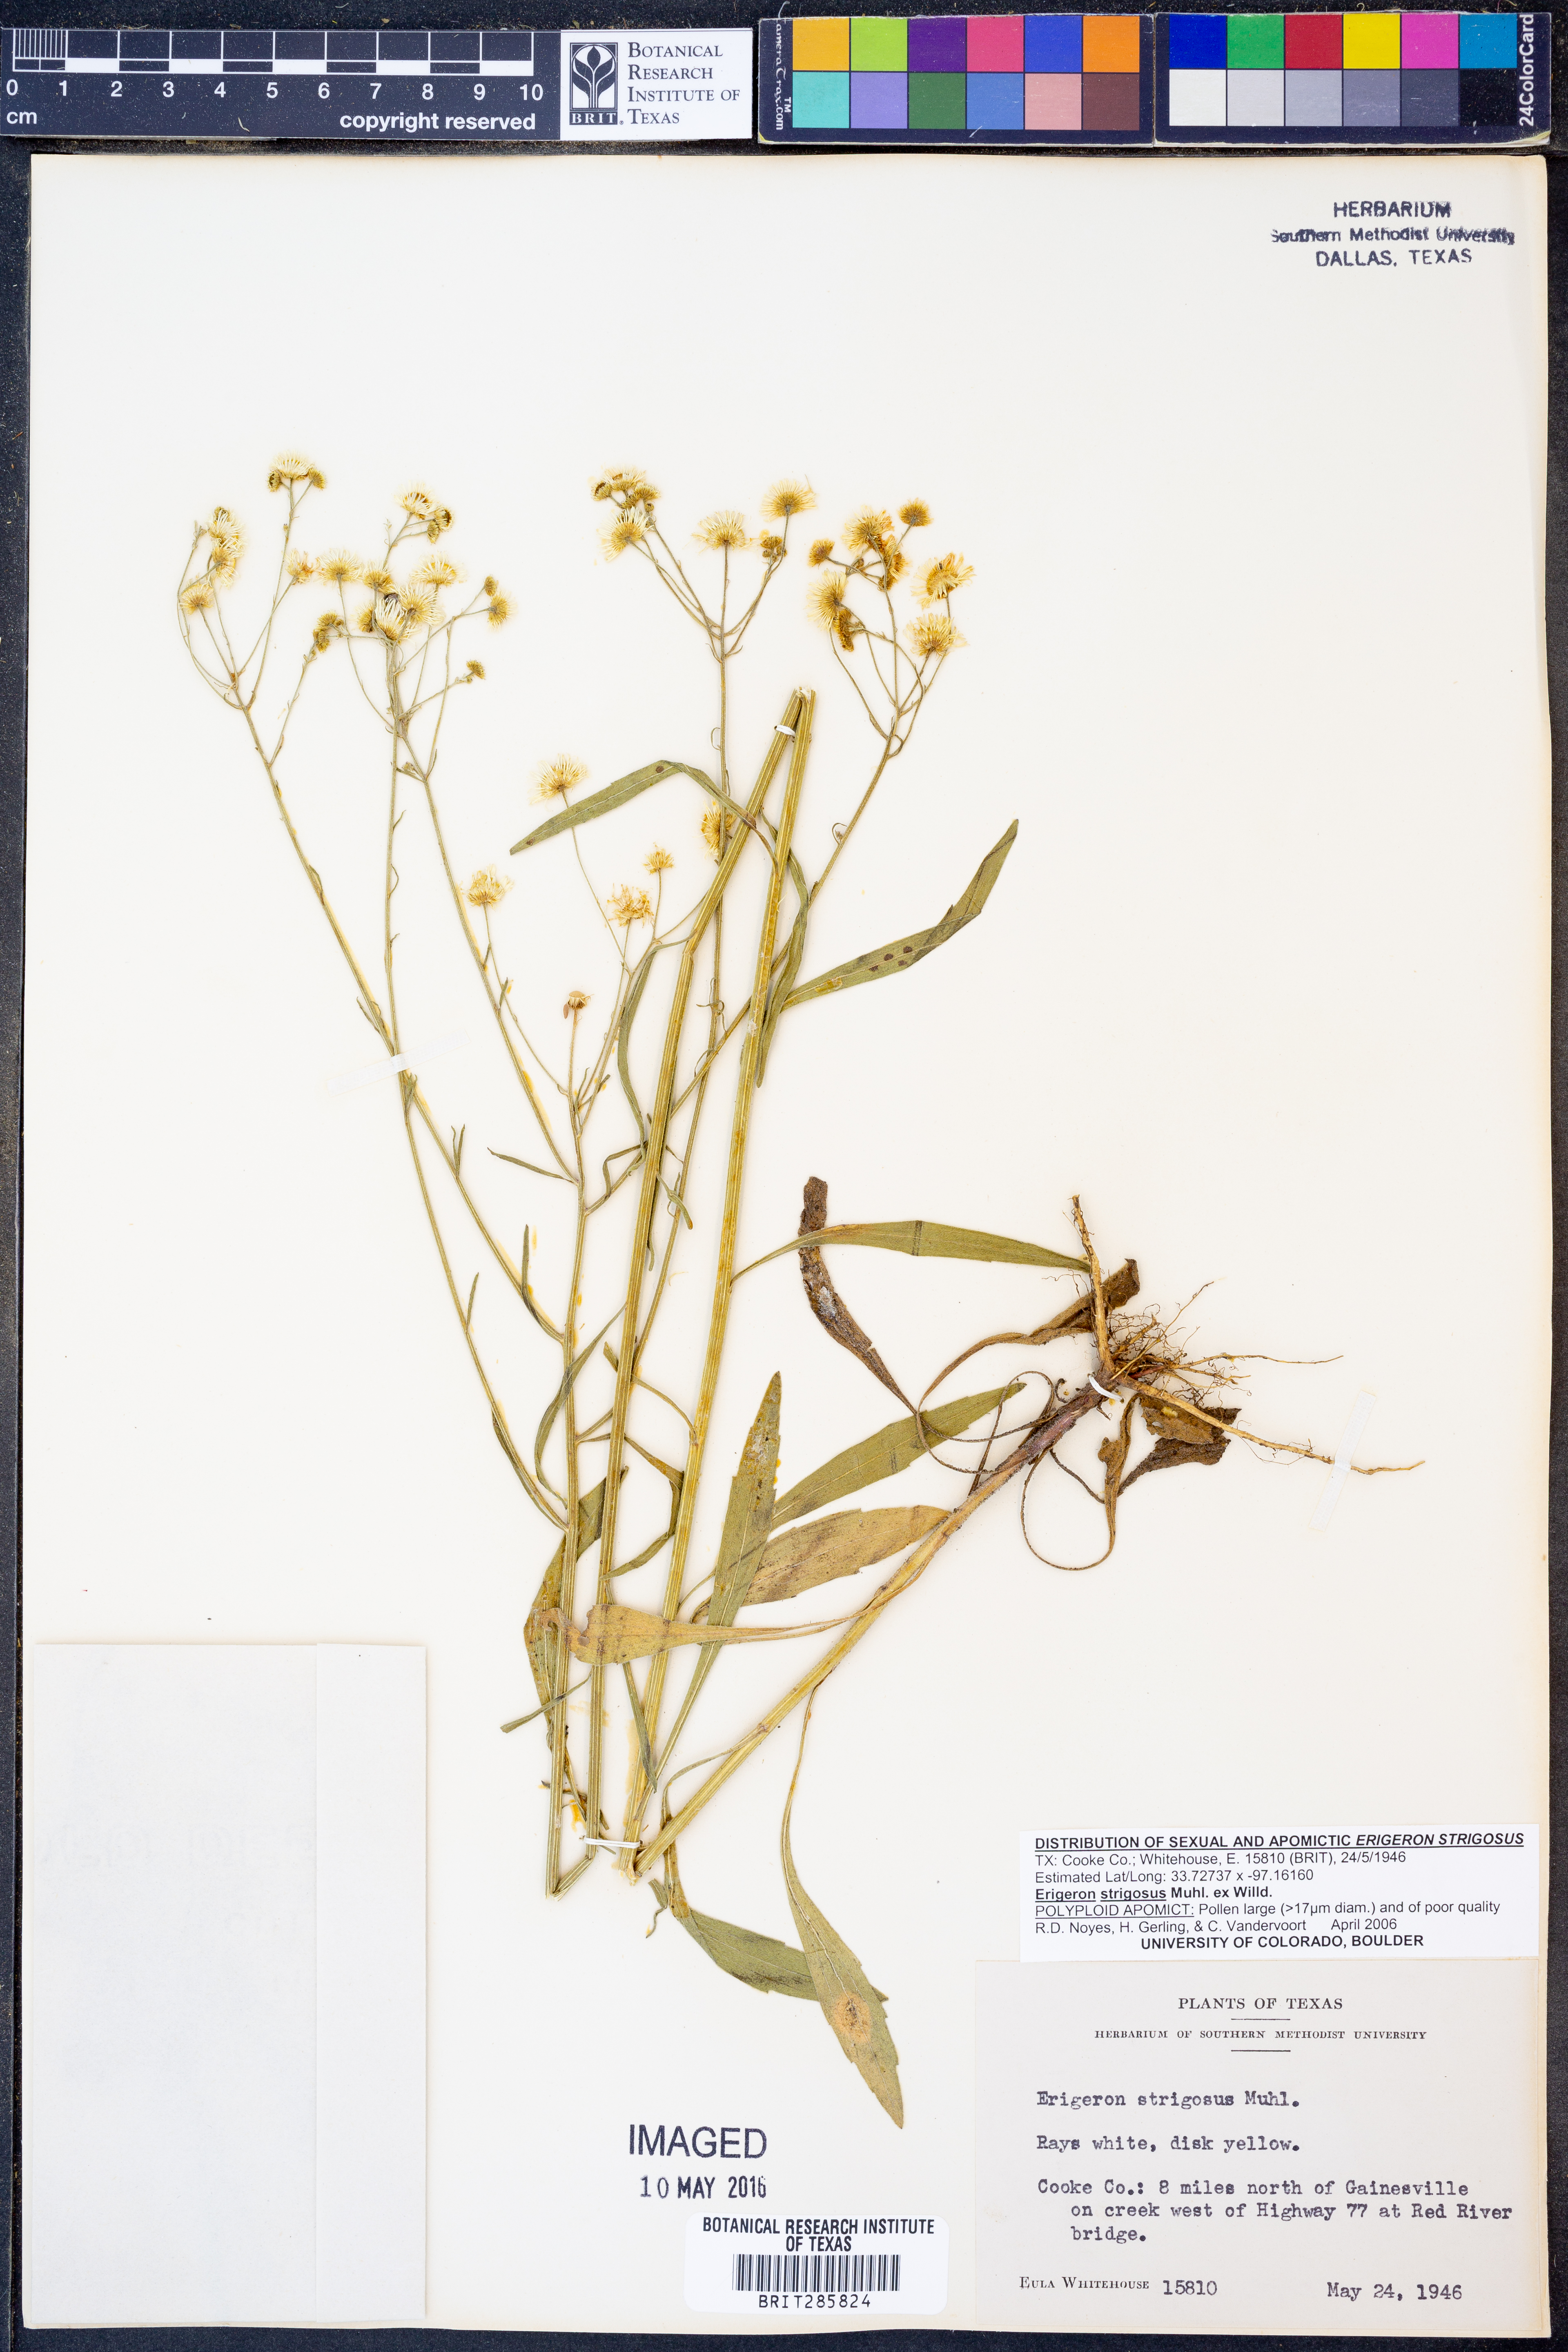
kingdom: Plantae
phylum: Tracheophyta
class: Magnoliopsida
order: Asterales
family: Asteraceae
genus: Erigeron
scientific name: Erigeron strigosus
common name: Common eastern fleabane
